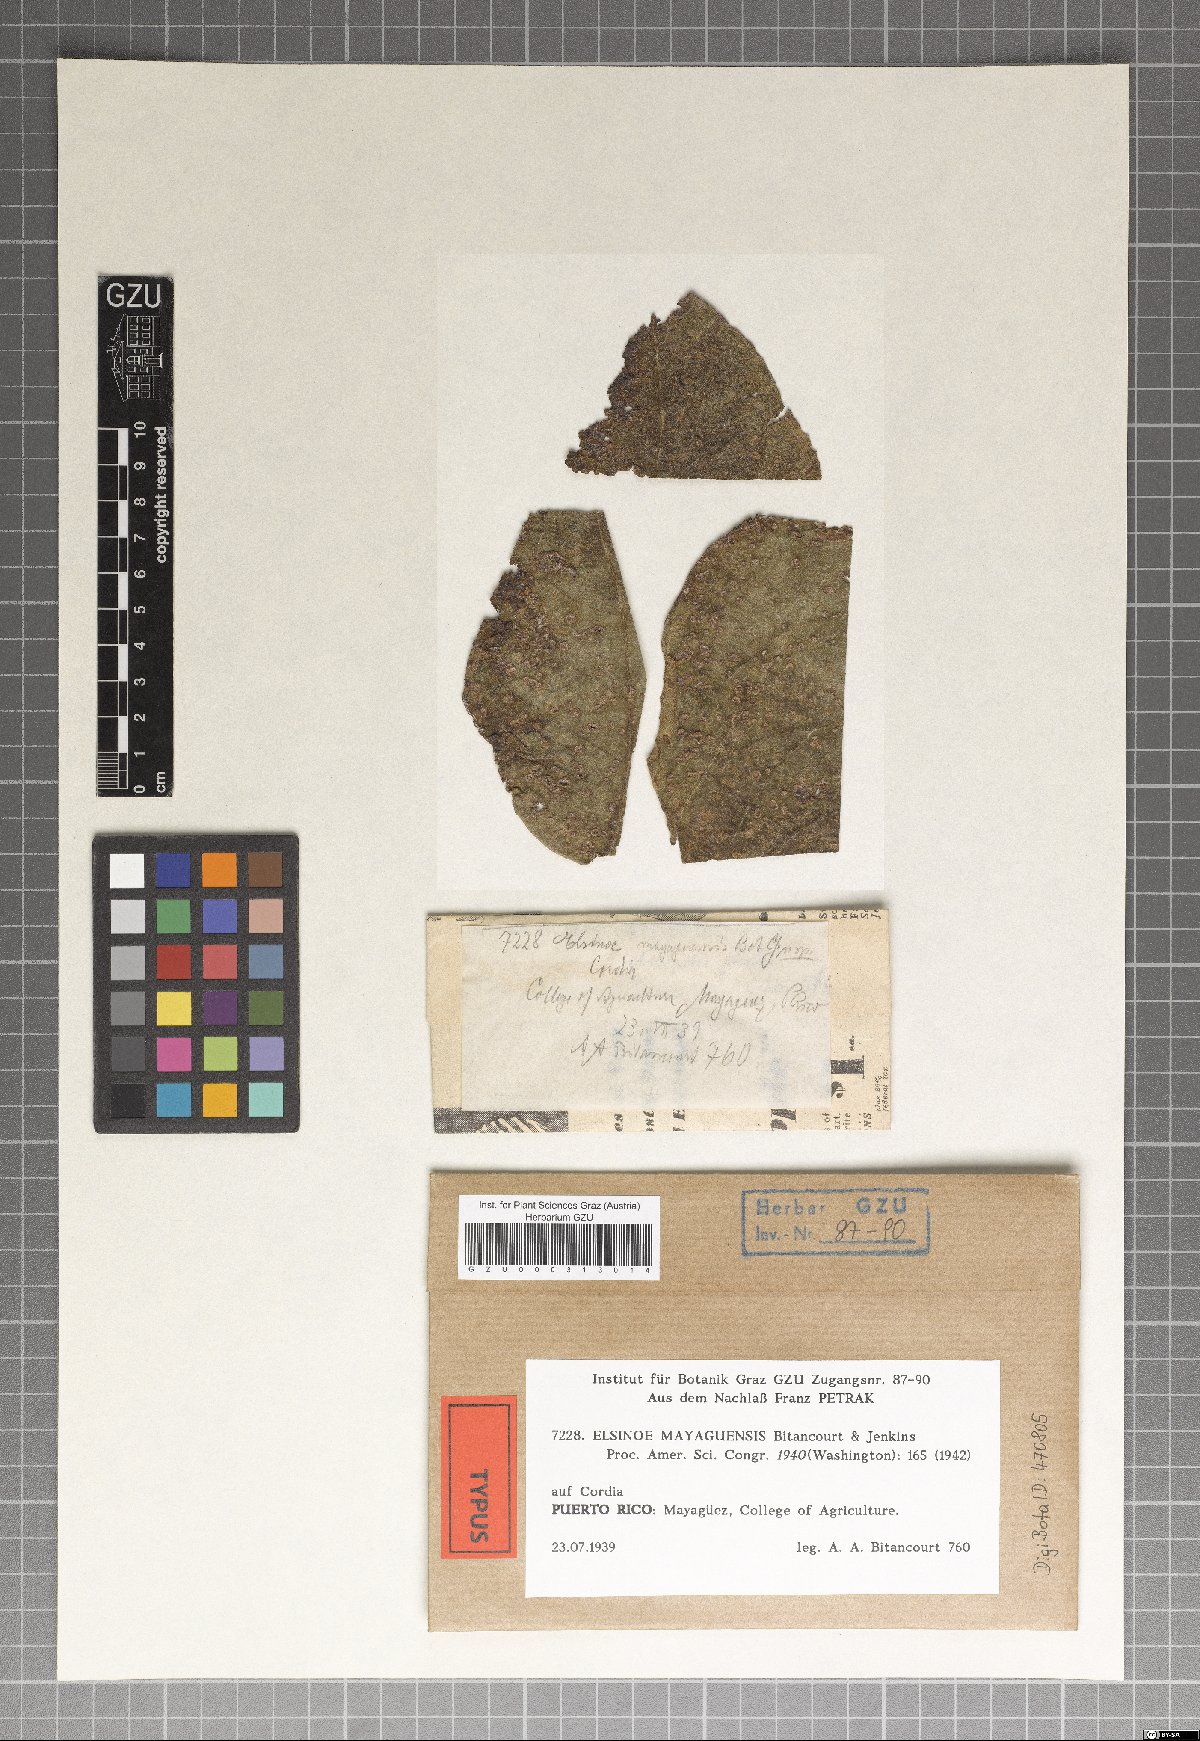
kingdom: Fungi
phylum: Ascomycota
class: Dothideomycetes
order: Myriangiales
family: Elsinoaceae
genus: Elsinoe
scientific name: Elsinoe mayaguensis
